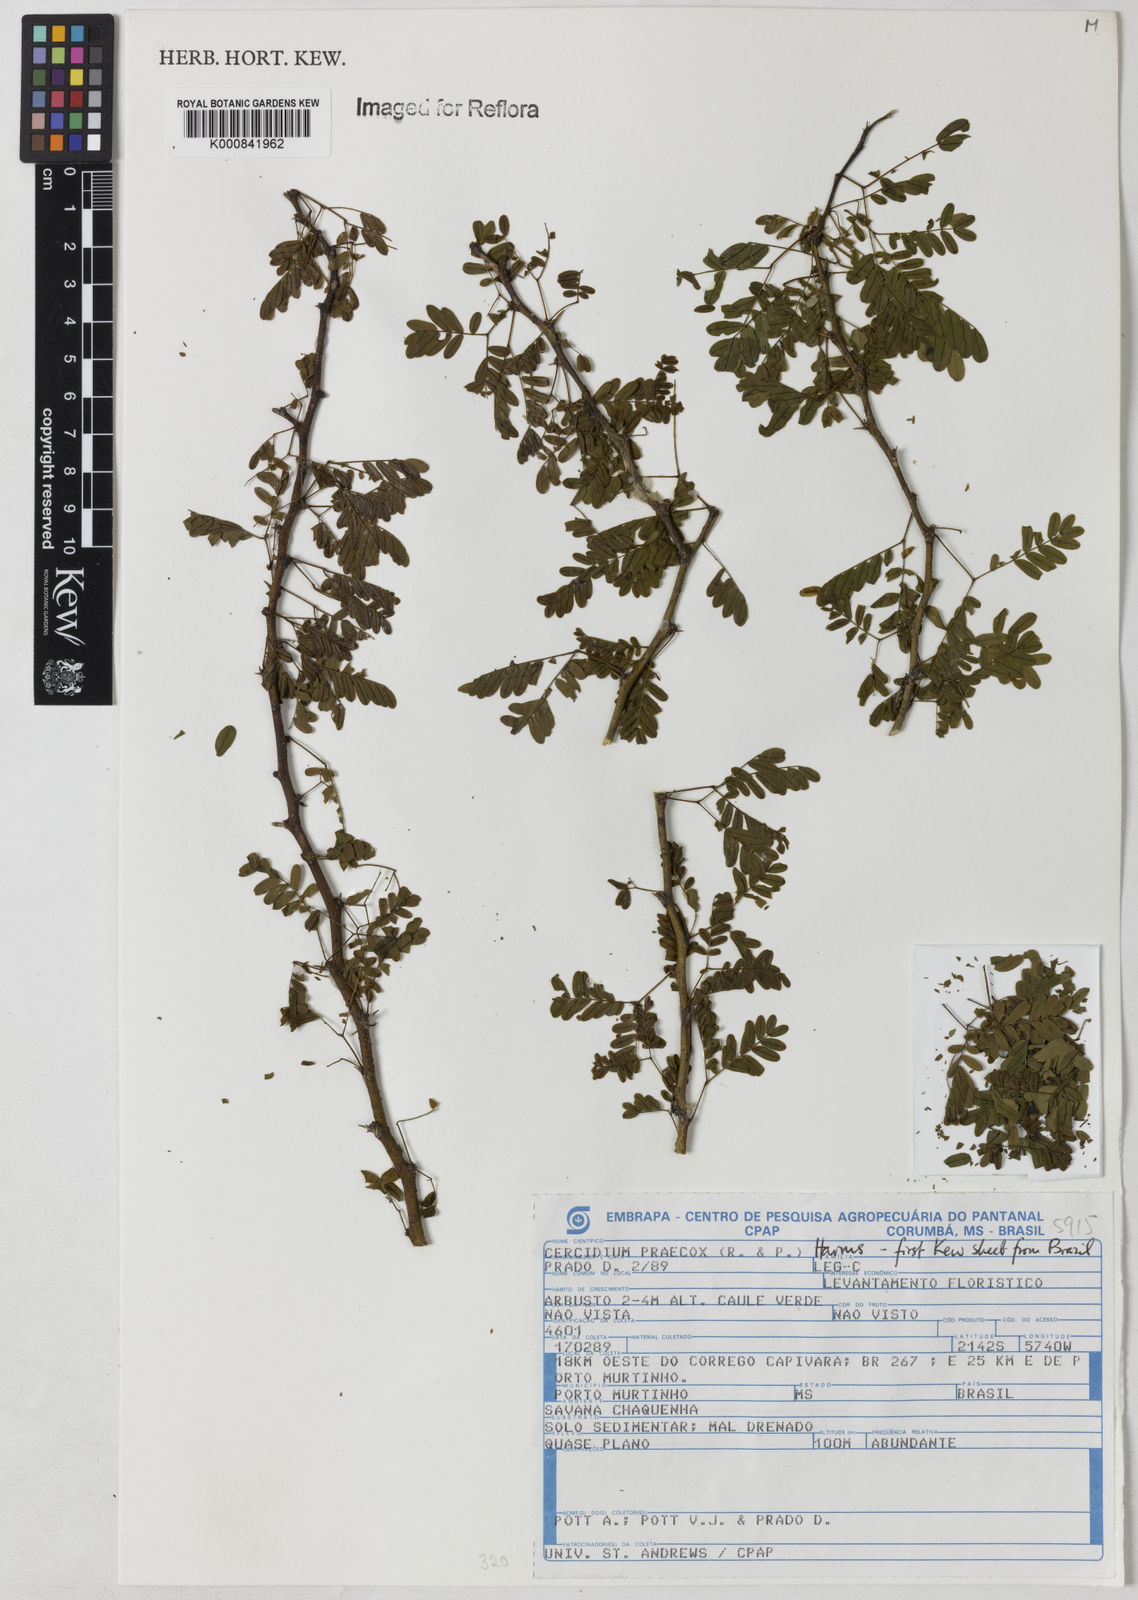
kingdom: Plantae
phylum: Tracheophyta
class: Magnoliopsida
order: Fabales
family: Fabaceae
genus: Parkinsonia
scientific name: Parkinsonia praecox
